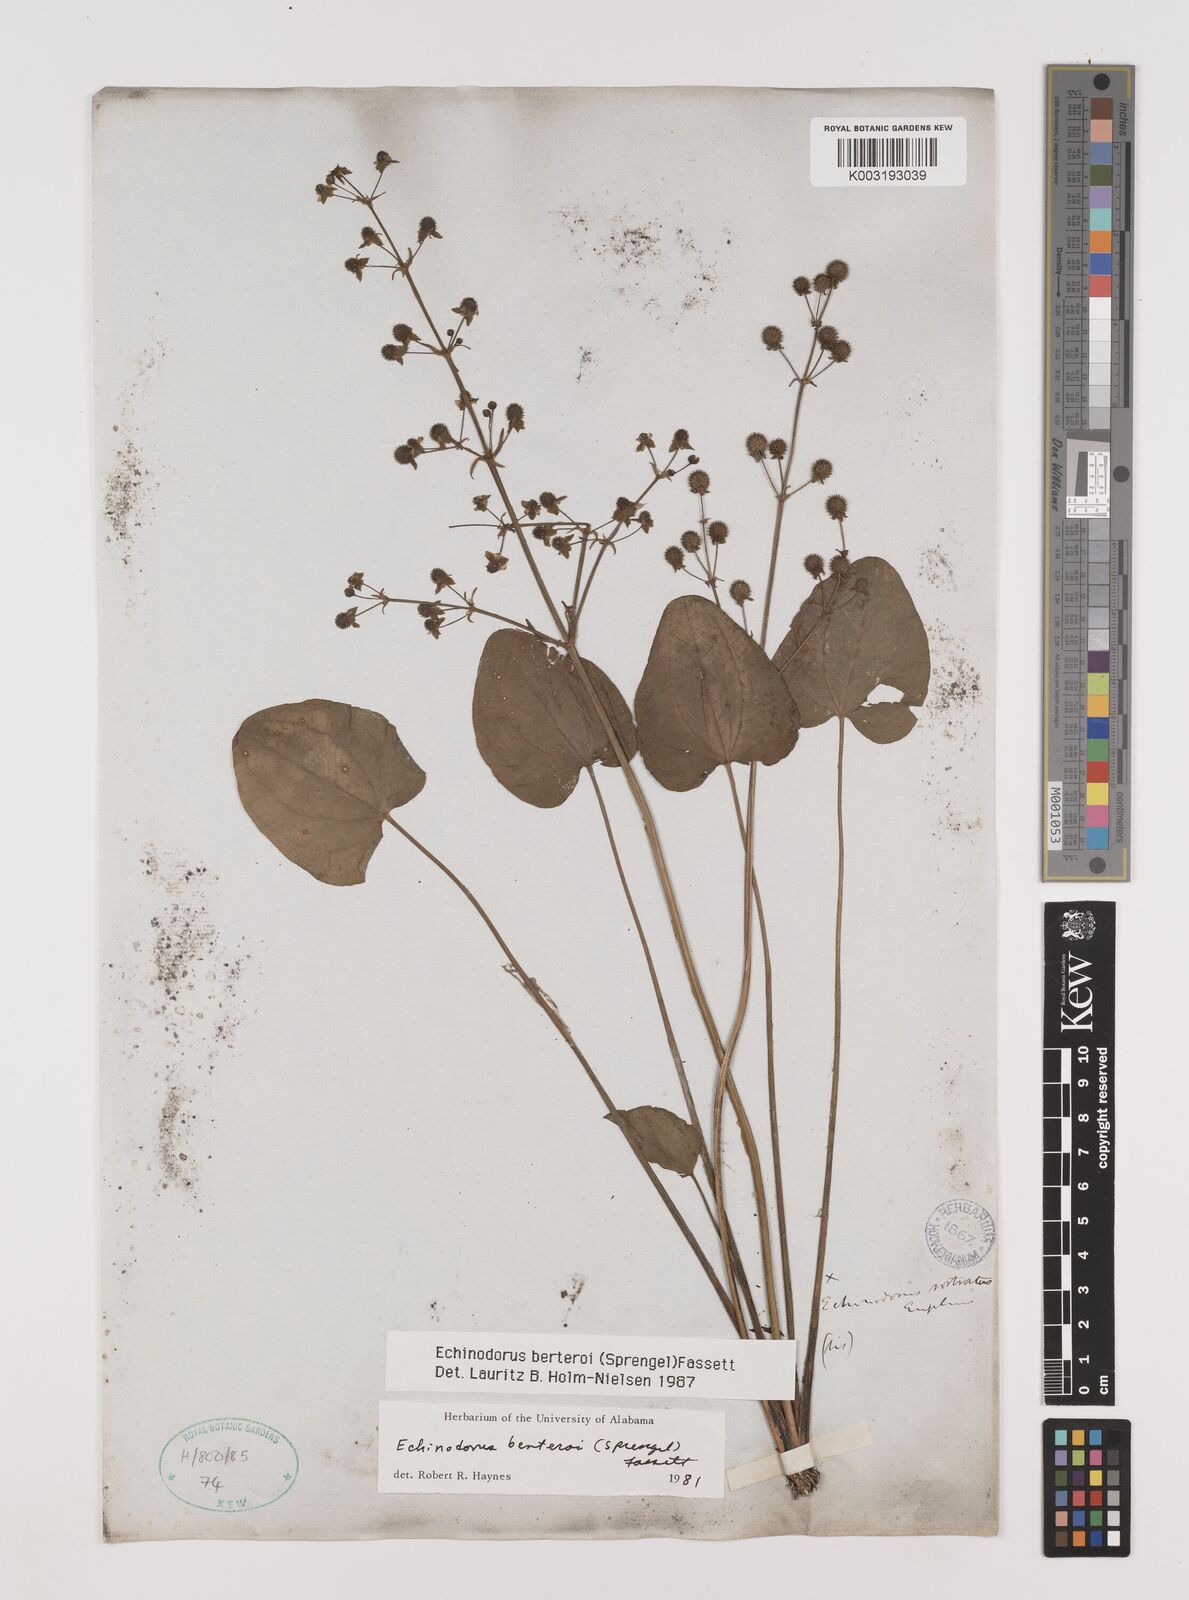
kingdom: Plantae
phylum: Tracheophyta
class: Liliopsida
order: Alismatales
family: Alismataceae
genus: Echinodorus
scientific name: Echinodorus berteroi
